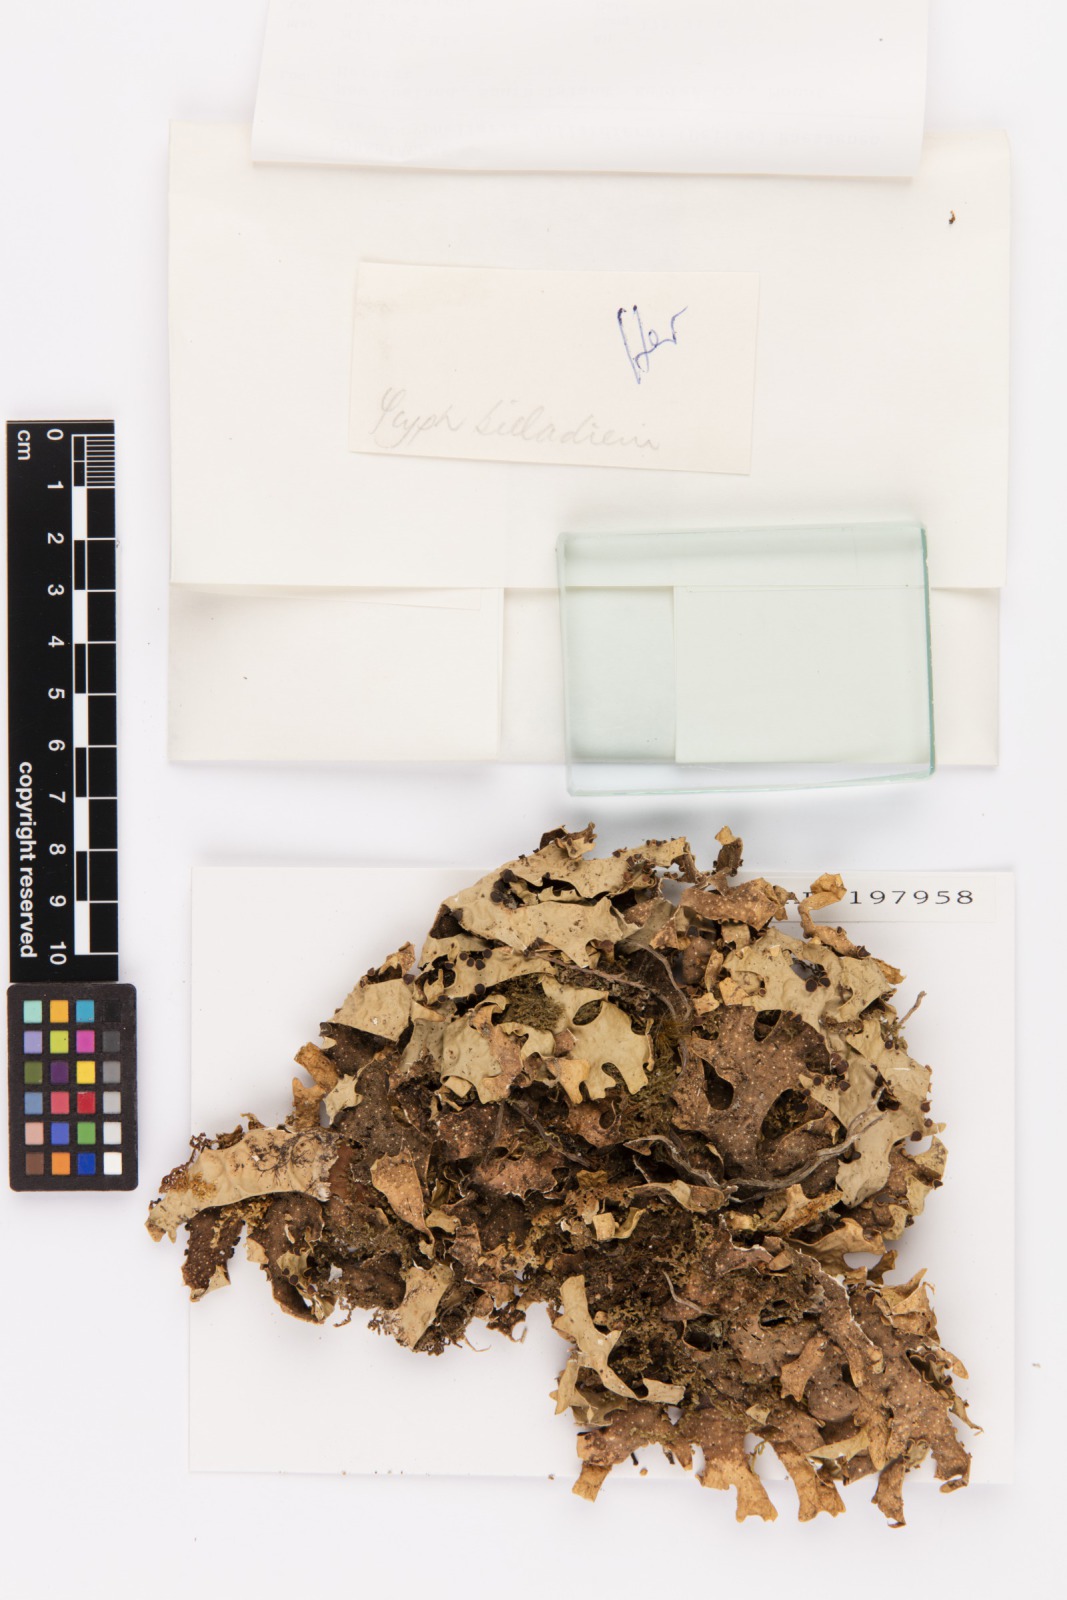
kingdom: Fungi
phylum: Ascomycota
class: Lecanoromycetes
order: Peltigerales
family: Lobariaceae
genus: Pseudocyphellaria
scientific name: Pseudocyphellaria billardierei
